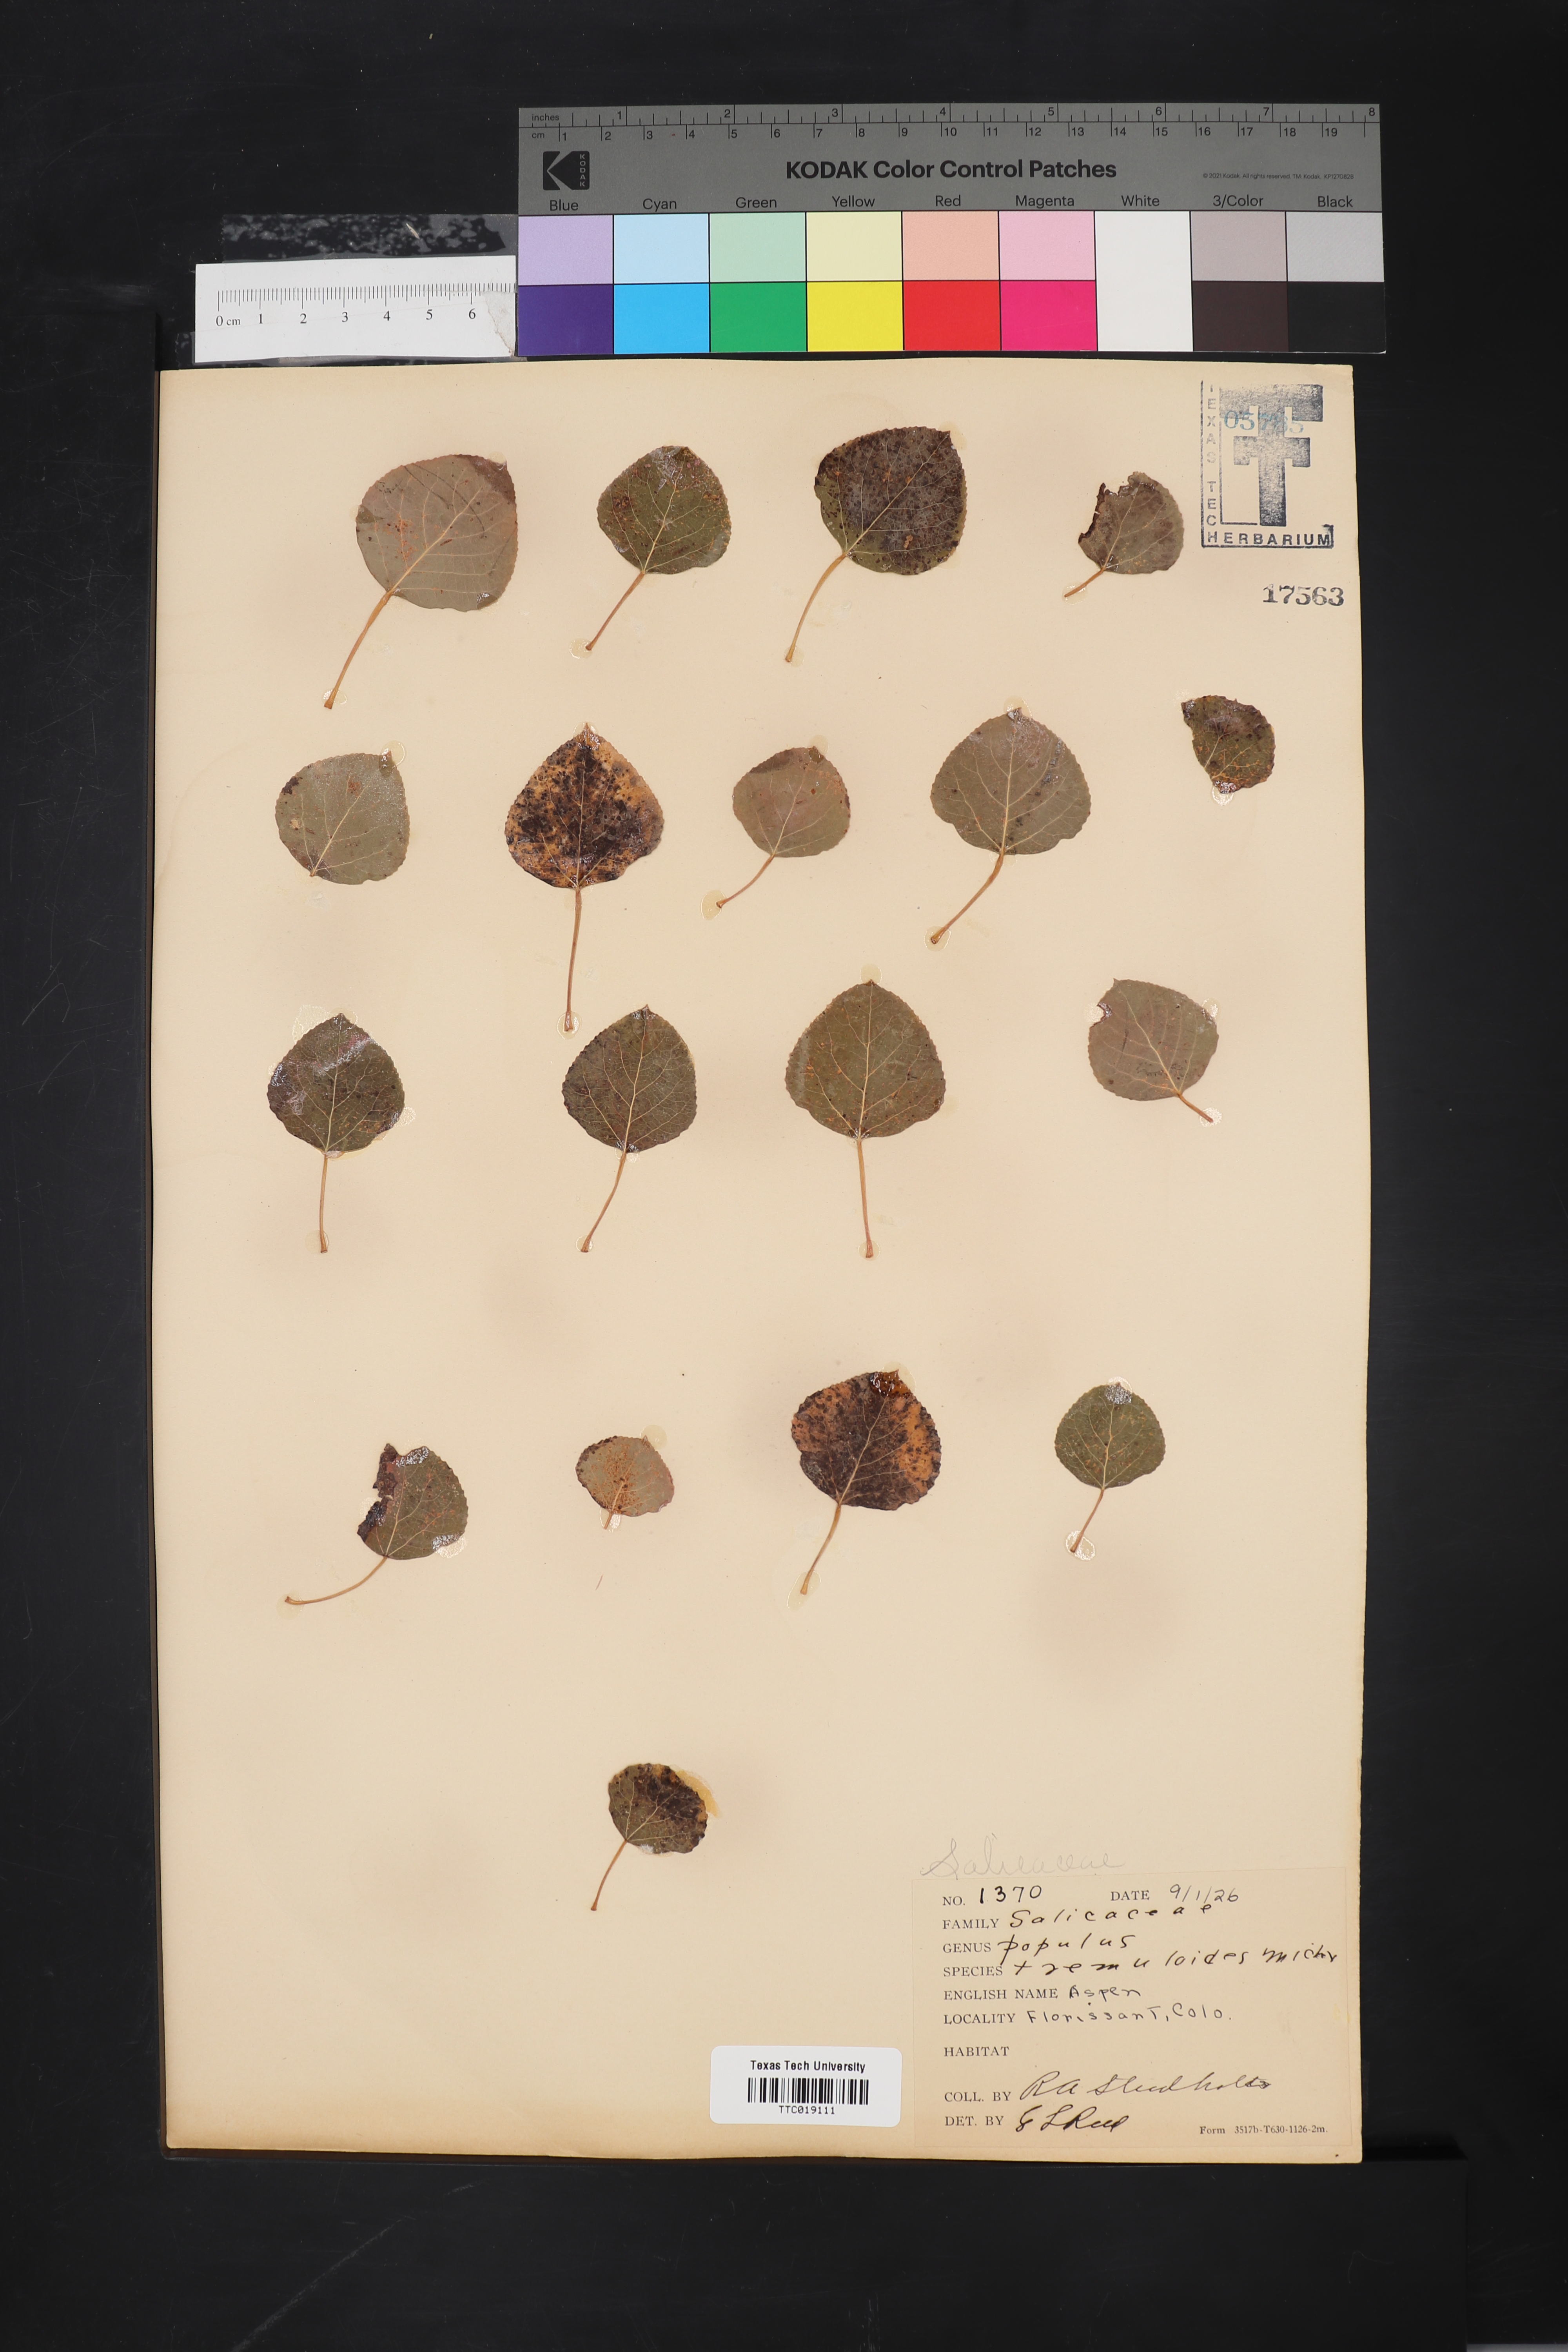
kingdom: Plantae
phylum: Tracheophyta
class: Magnoliopsida
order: Malpighiales
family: Salicaceae
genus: Populus
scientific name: Populus tremuloides
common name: Quaking aspen
